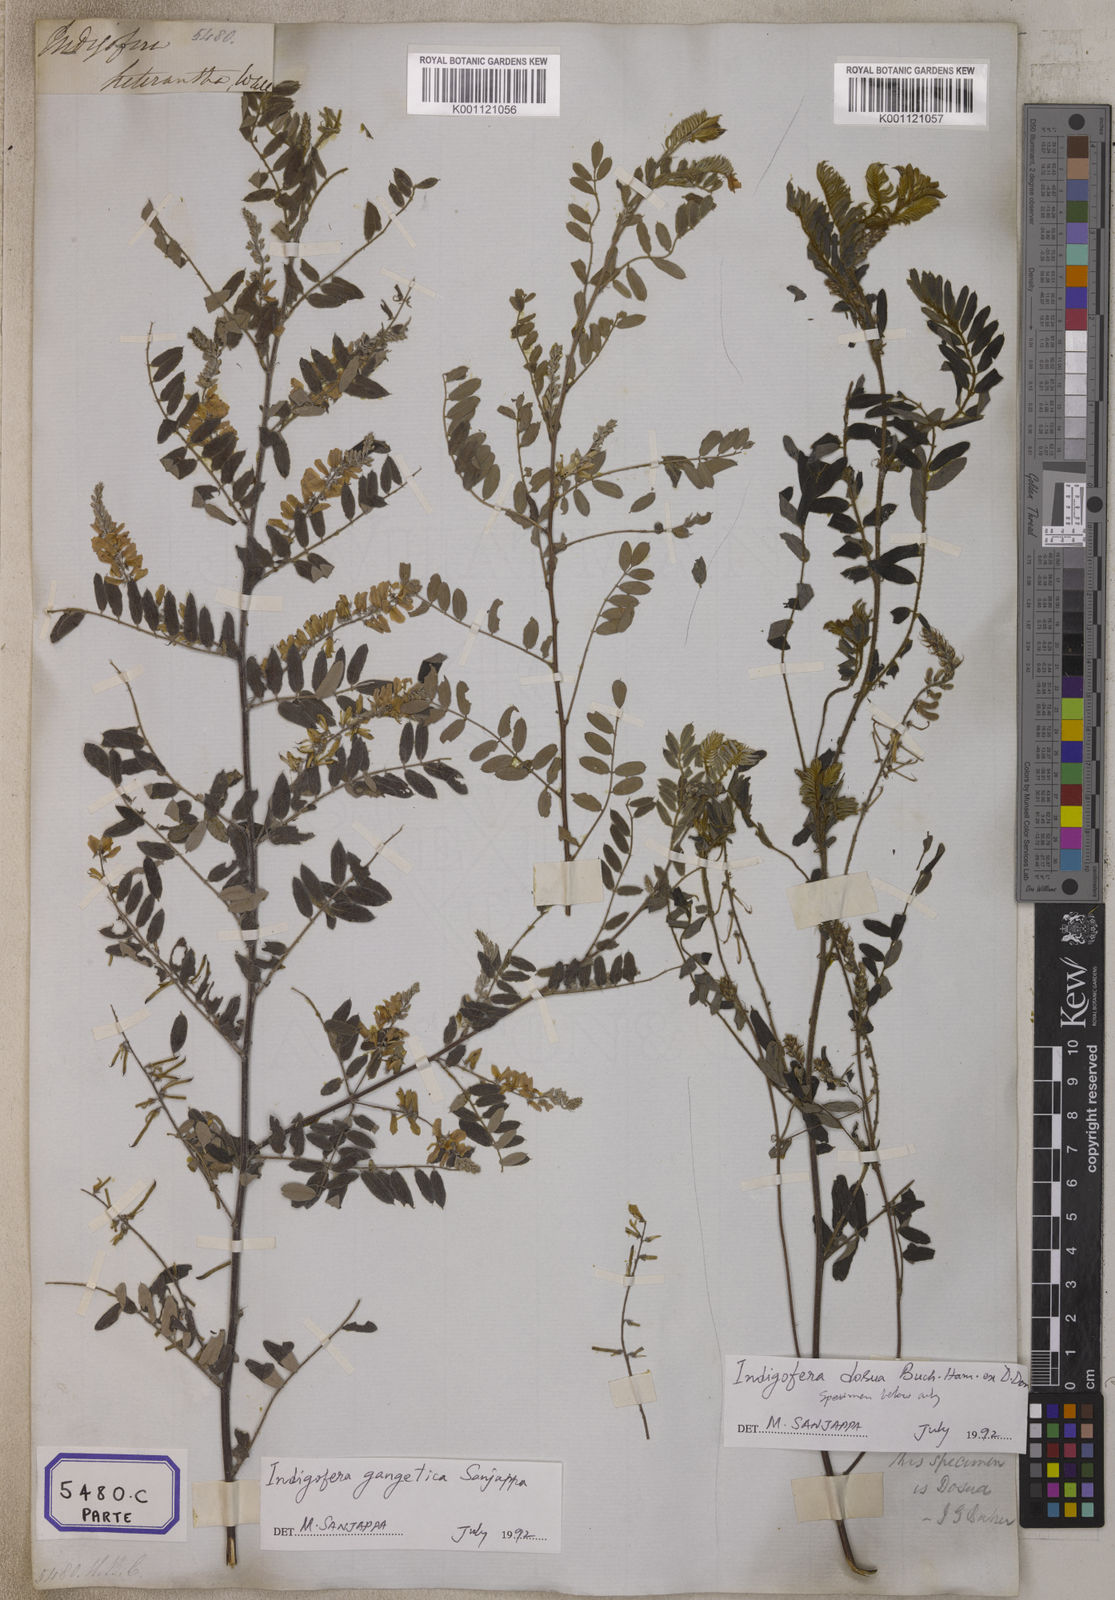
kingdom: Plantae
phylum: Tracheophyta
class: Magnoliopsida
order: Fabales
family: Fabaceae
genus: Indigofera
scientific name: Indigofera
